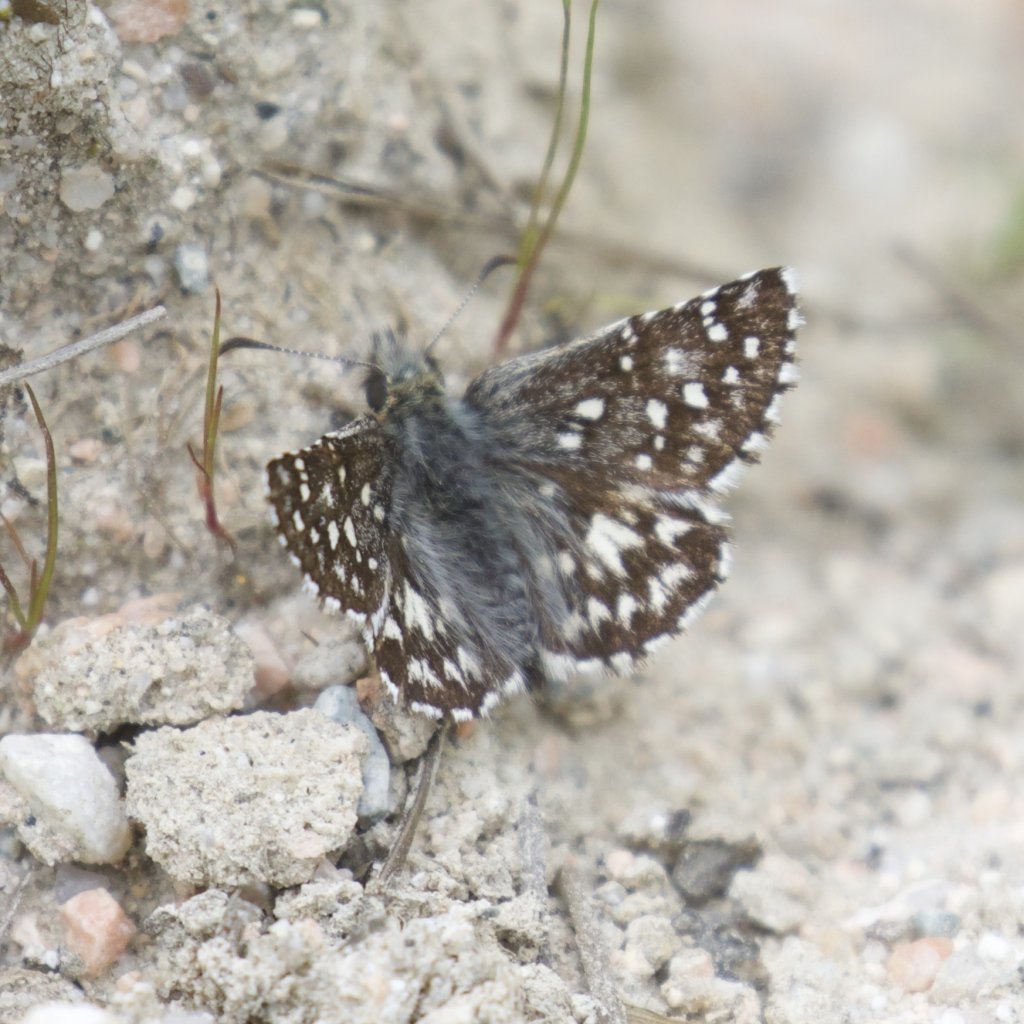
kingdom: Animalia
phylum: Arthropoda
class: Insecta
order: Lepidoptera
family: Hesperiidae
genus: Pyrgus
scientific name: Pyrgus ruralis
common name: Two-banded Checkered-Skipper
